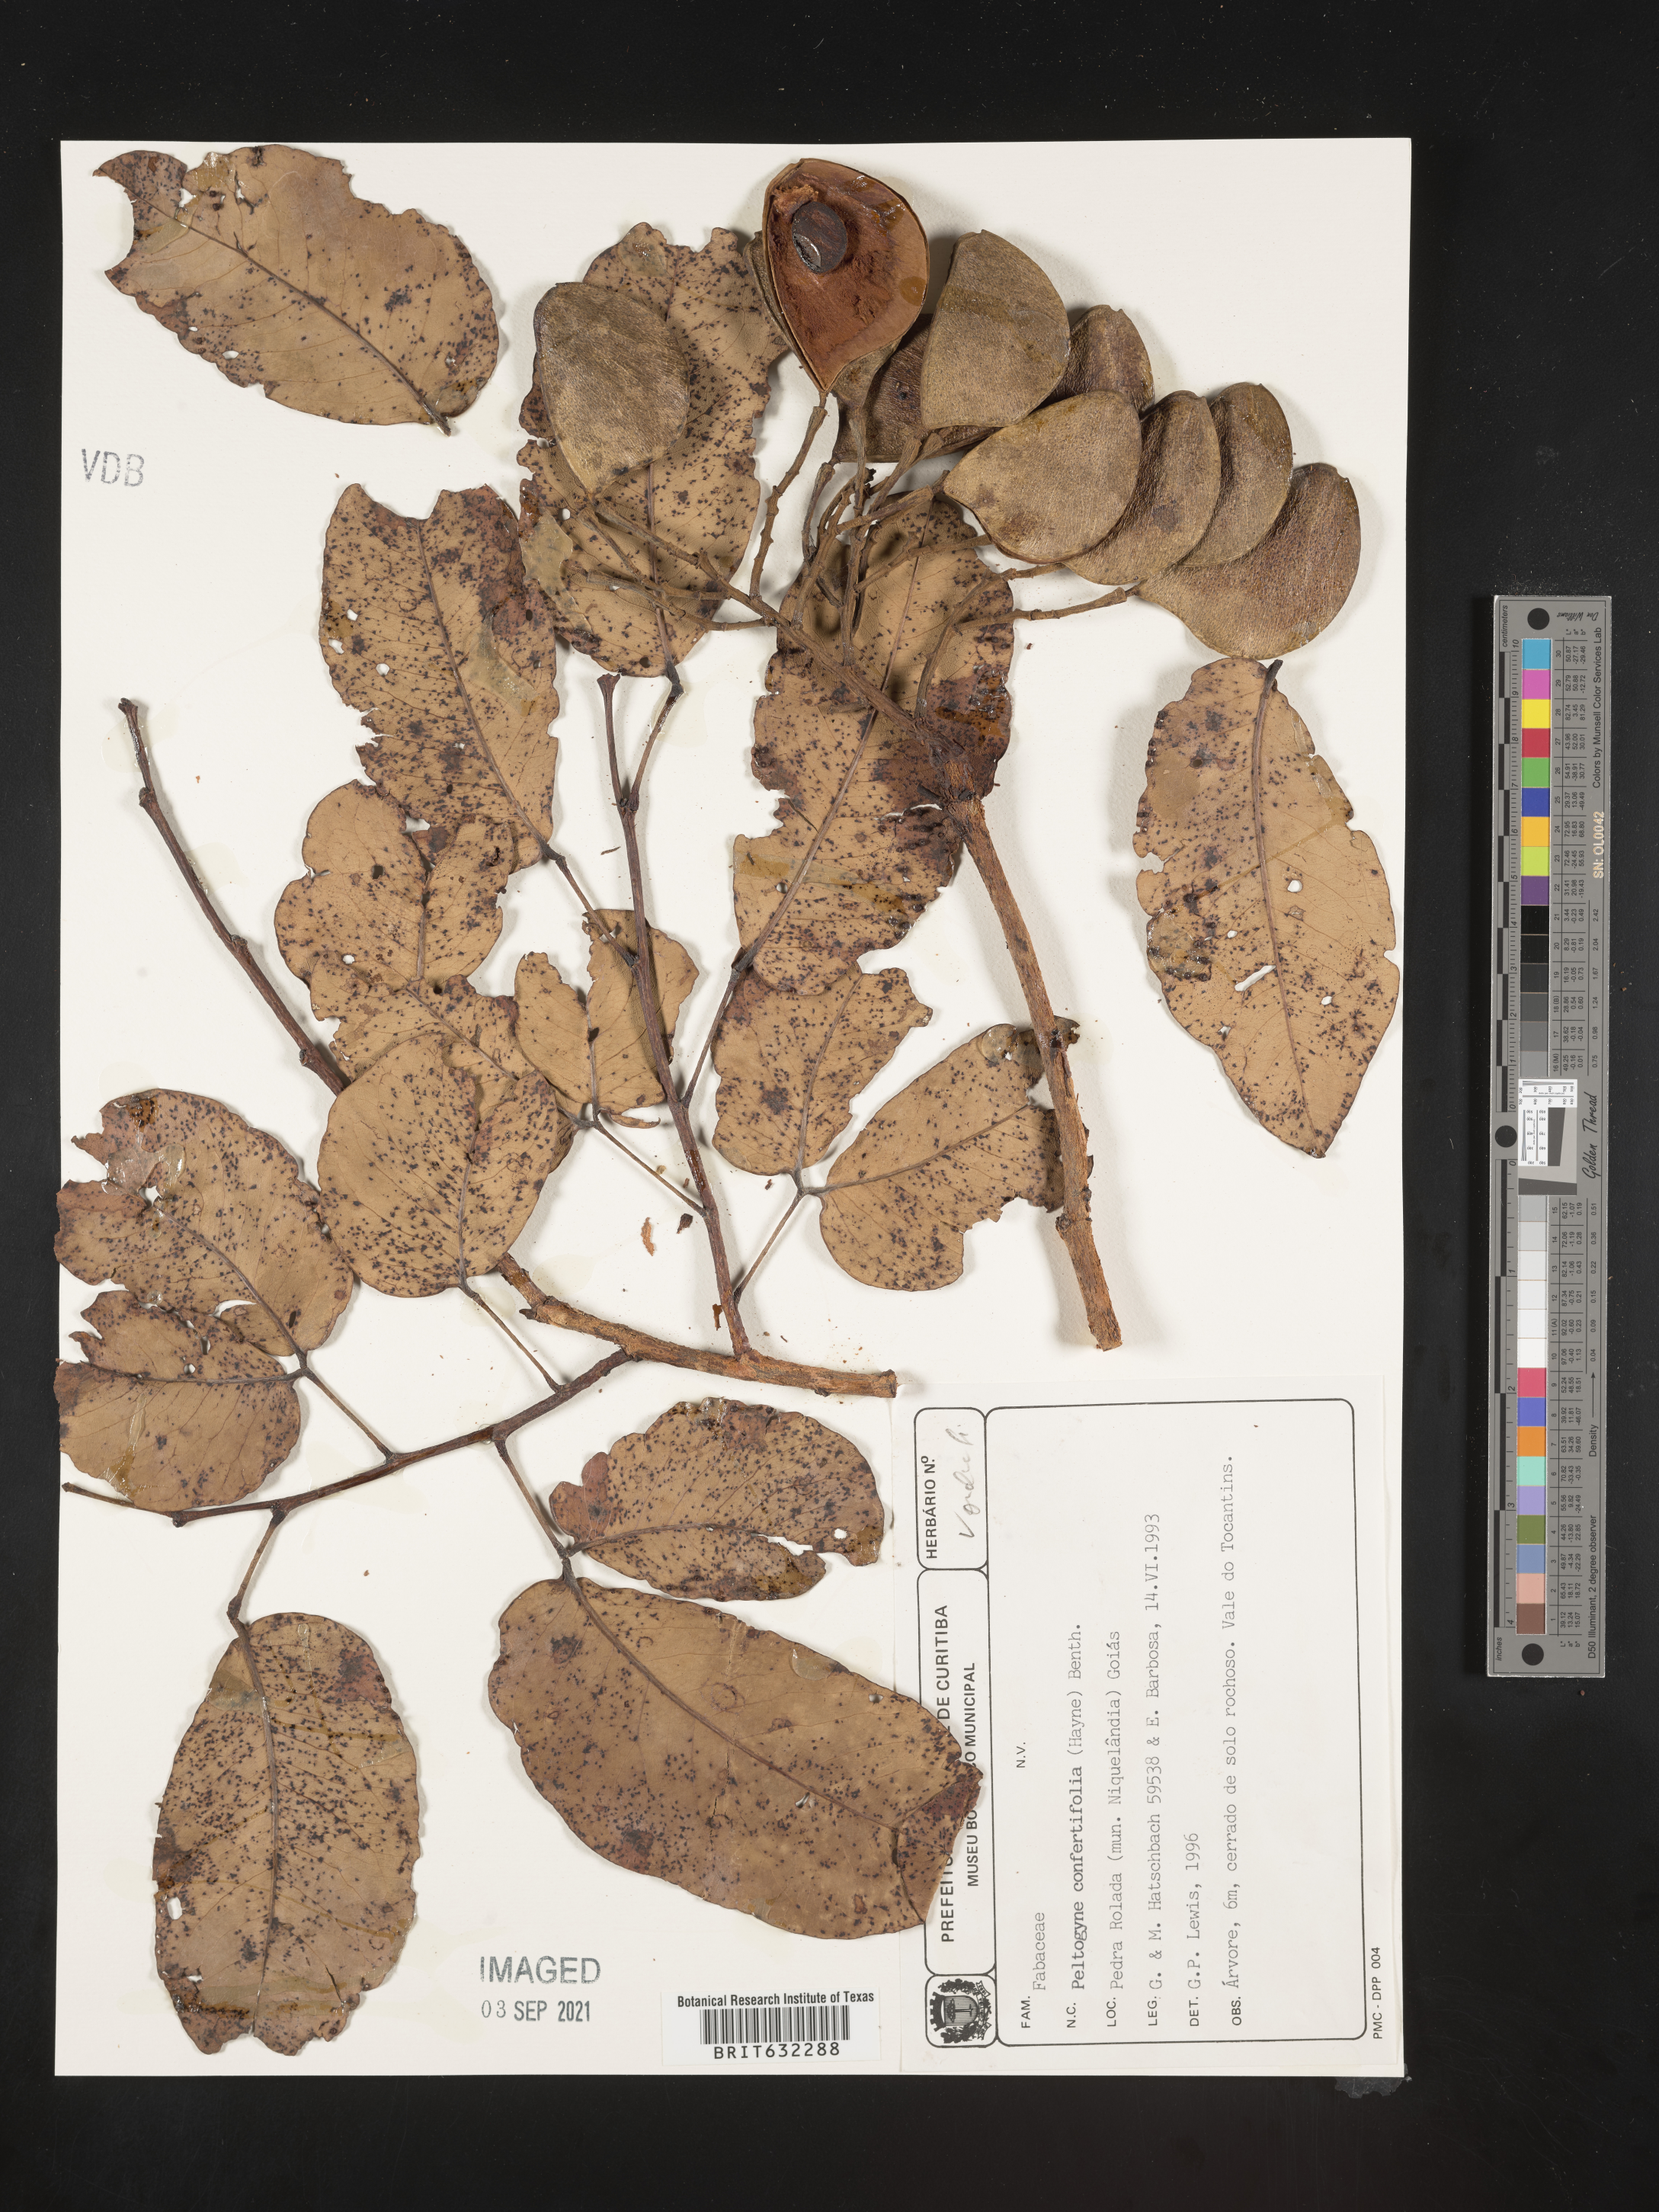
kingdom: Plantae
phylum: Tracheophyta
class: Magnoliopsida
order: Fabales
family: Fabaceae
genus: Peltogyne
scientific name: Peltogyne
